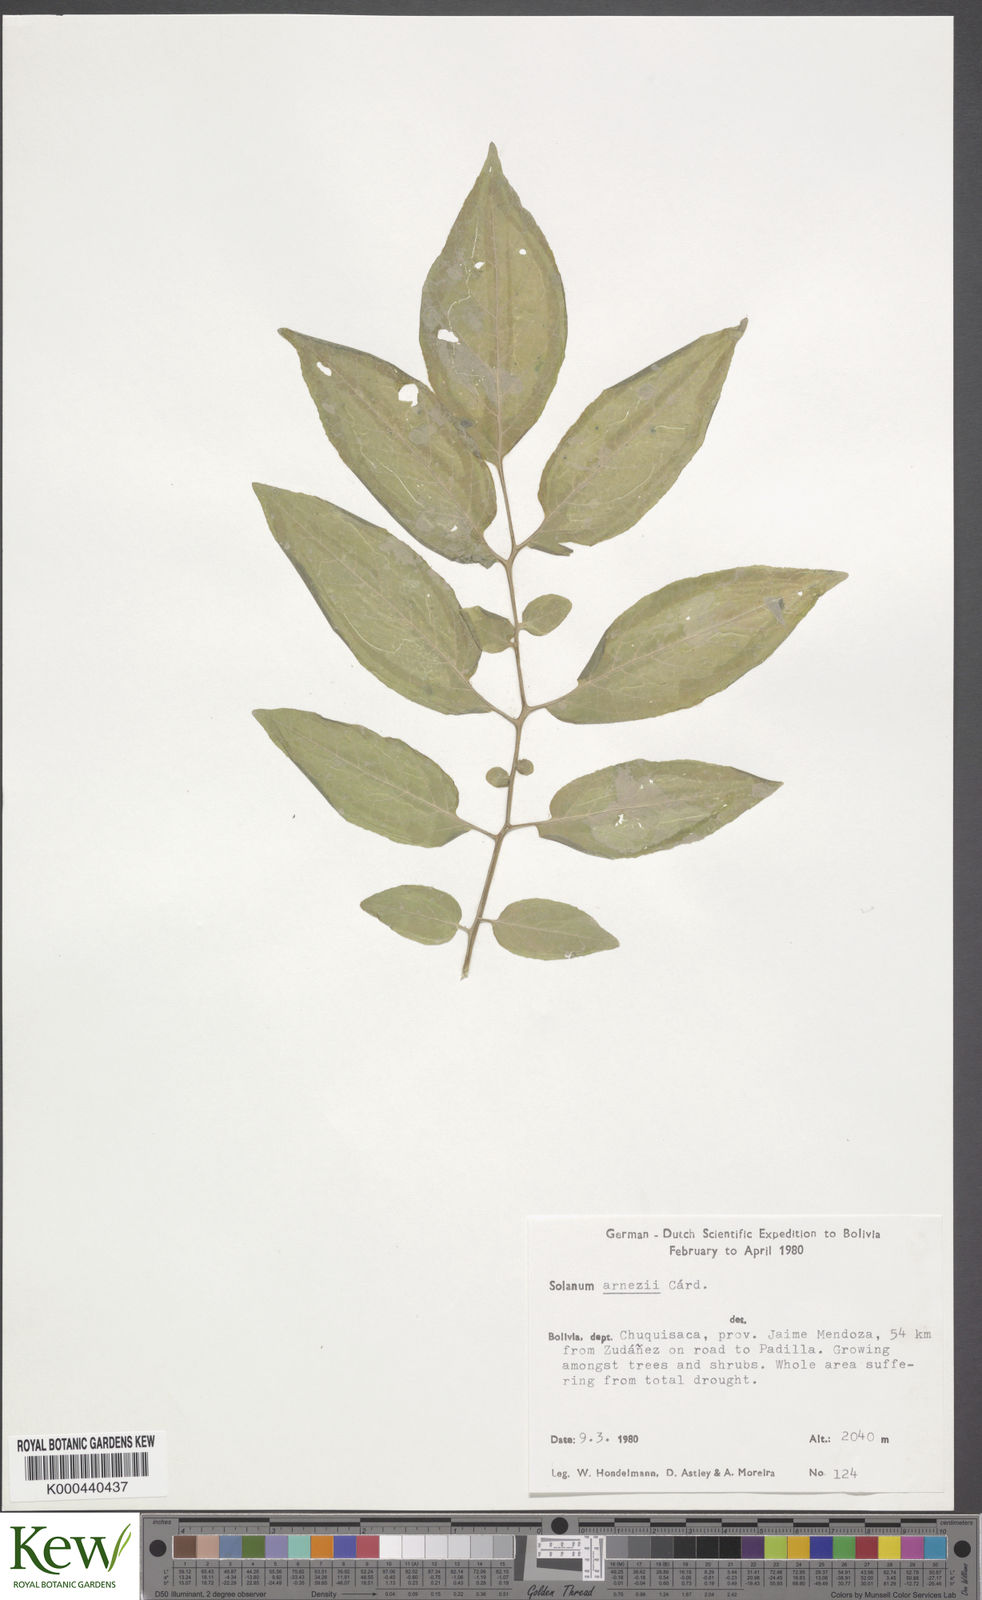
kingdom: Plantae
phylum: Tracheophyta
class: Magnoliopsida
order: Solanales
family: Solanaceae
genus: Solanum
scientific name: Solanum chacoense
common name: Chaco potato
